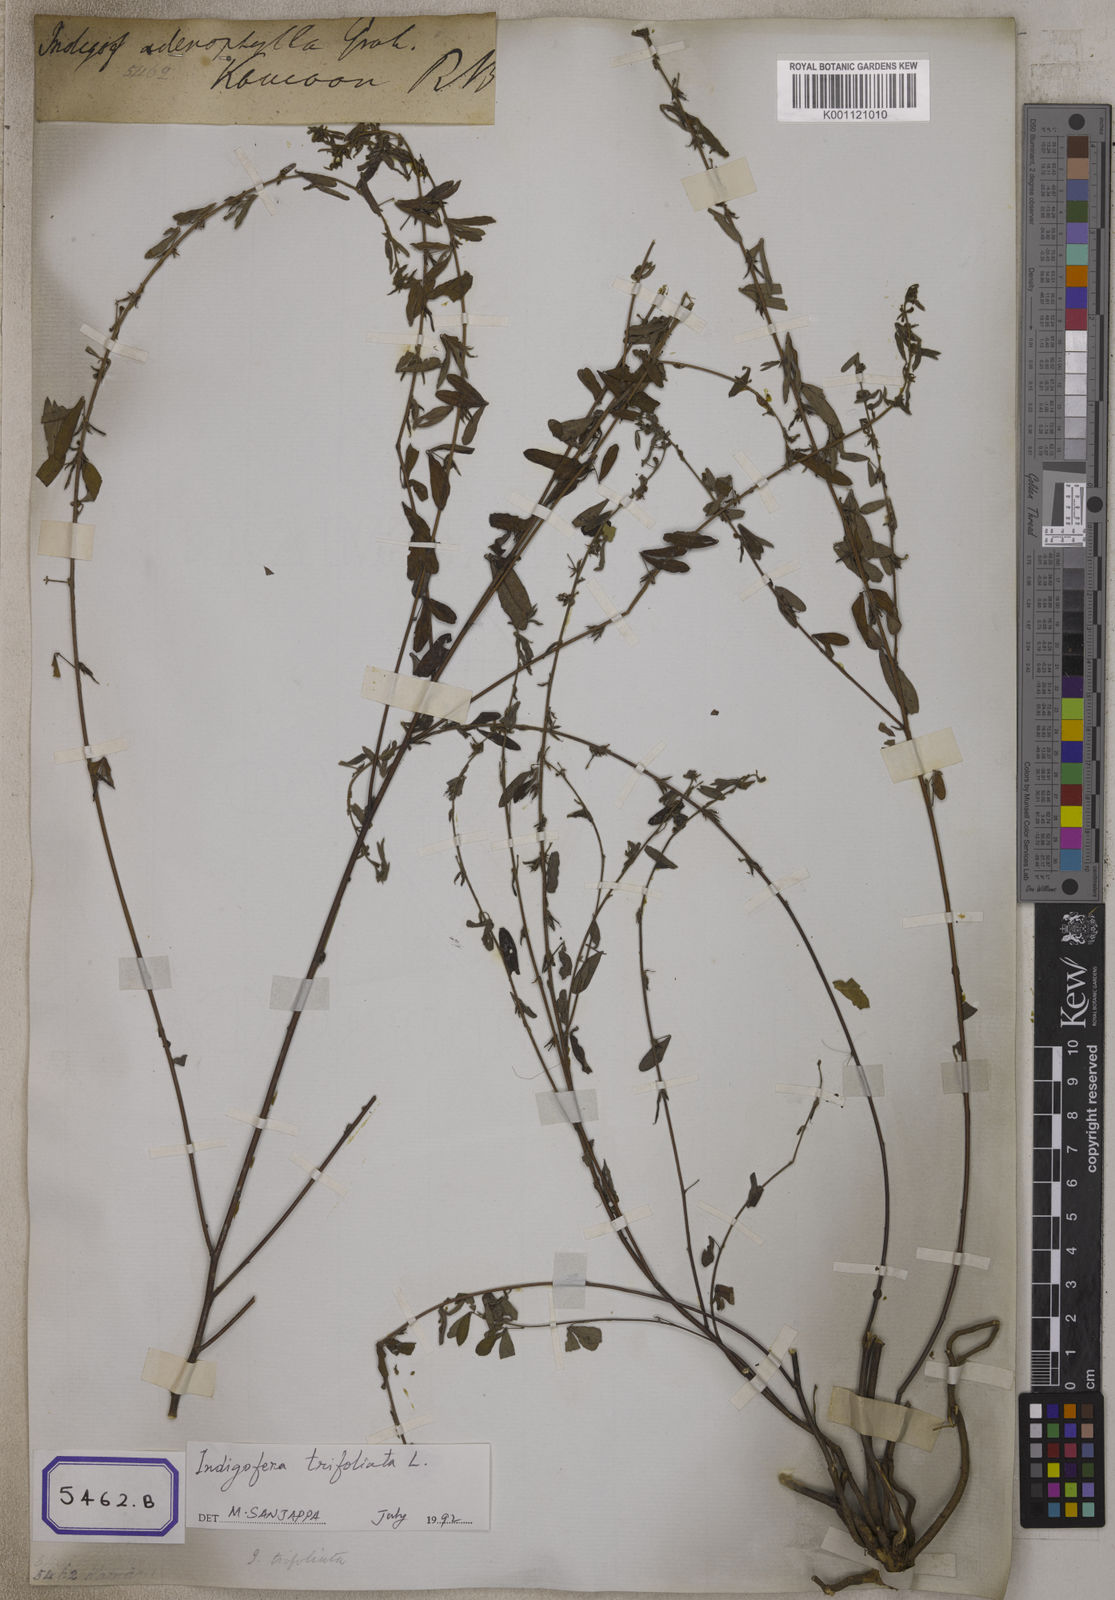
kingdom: Plantae
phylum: Tracheophyta
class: Magnoliopsida
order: Fabales
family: Fabaceae
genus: Indigofera
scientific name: Indigofera trifoliata
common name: Threeleaf indigo
